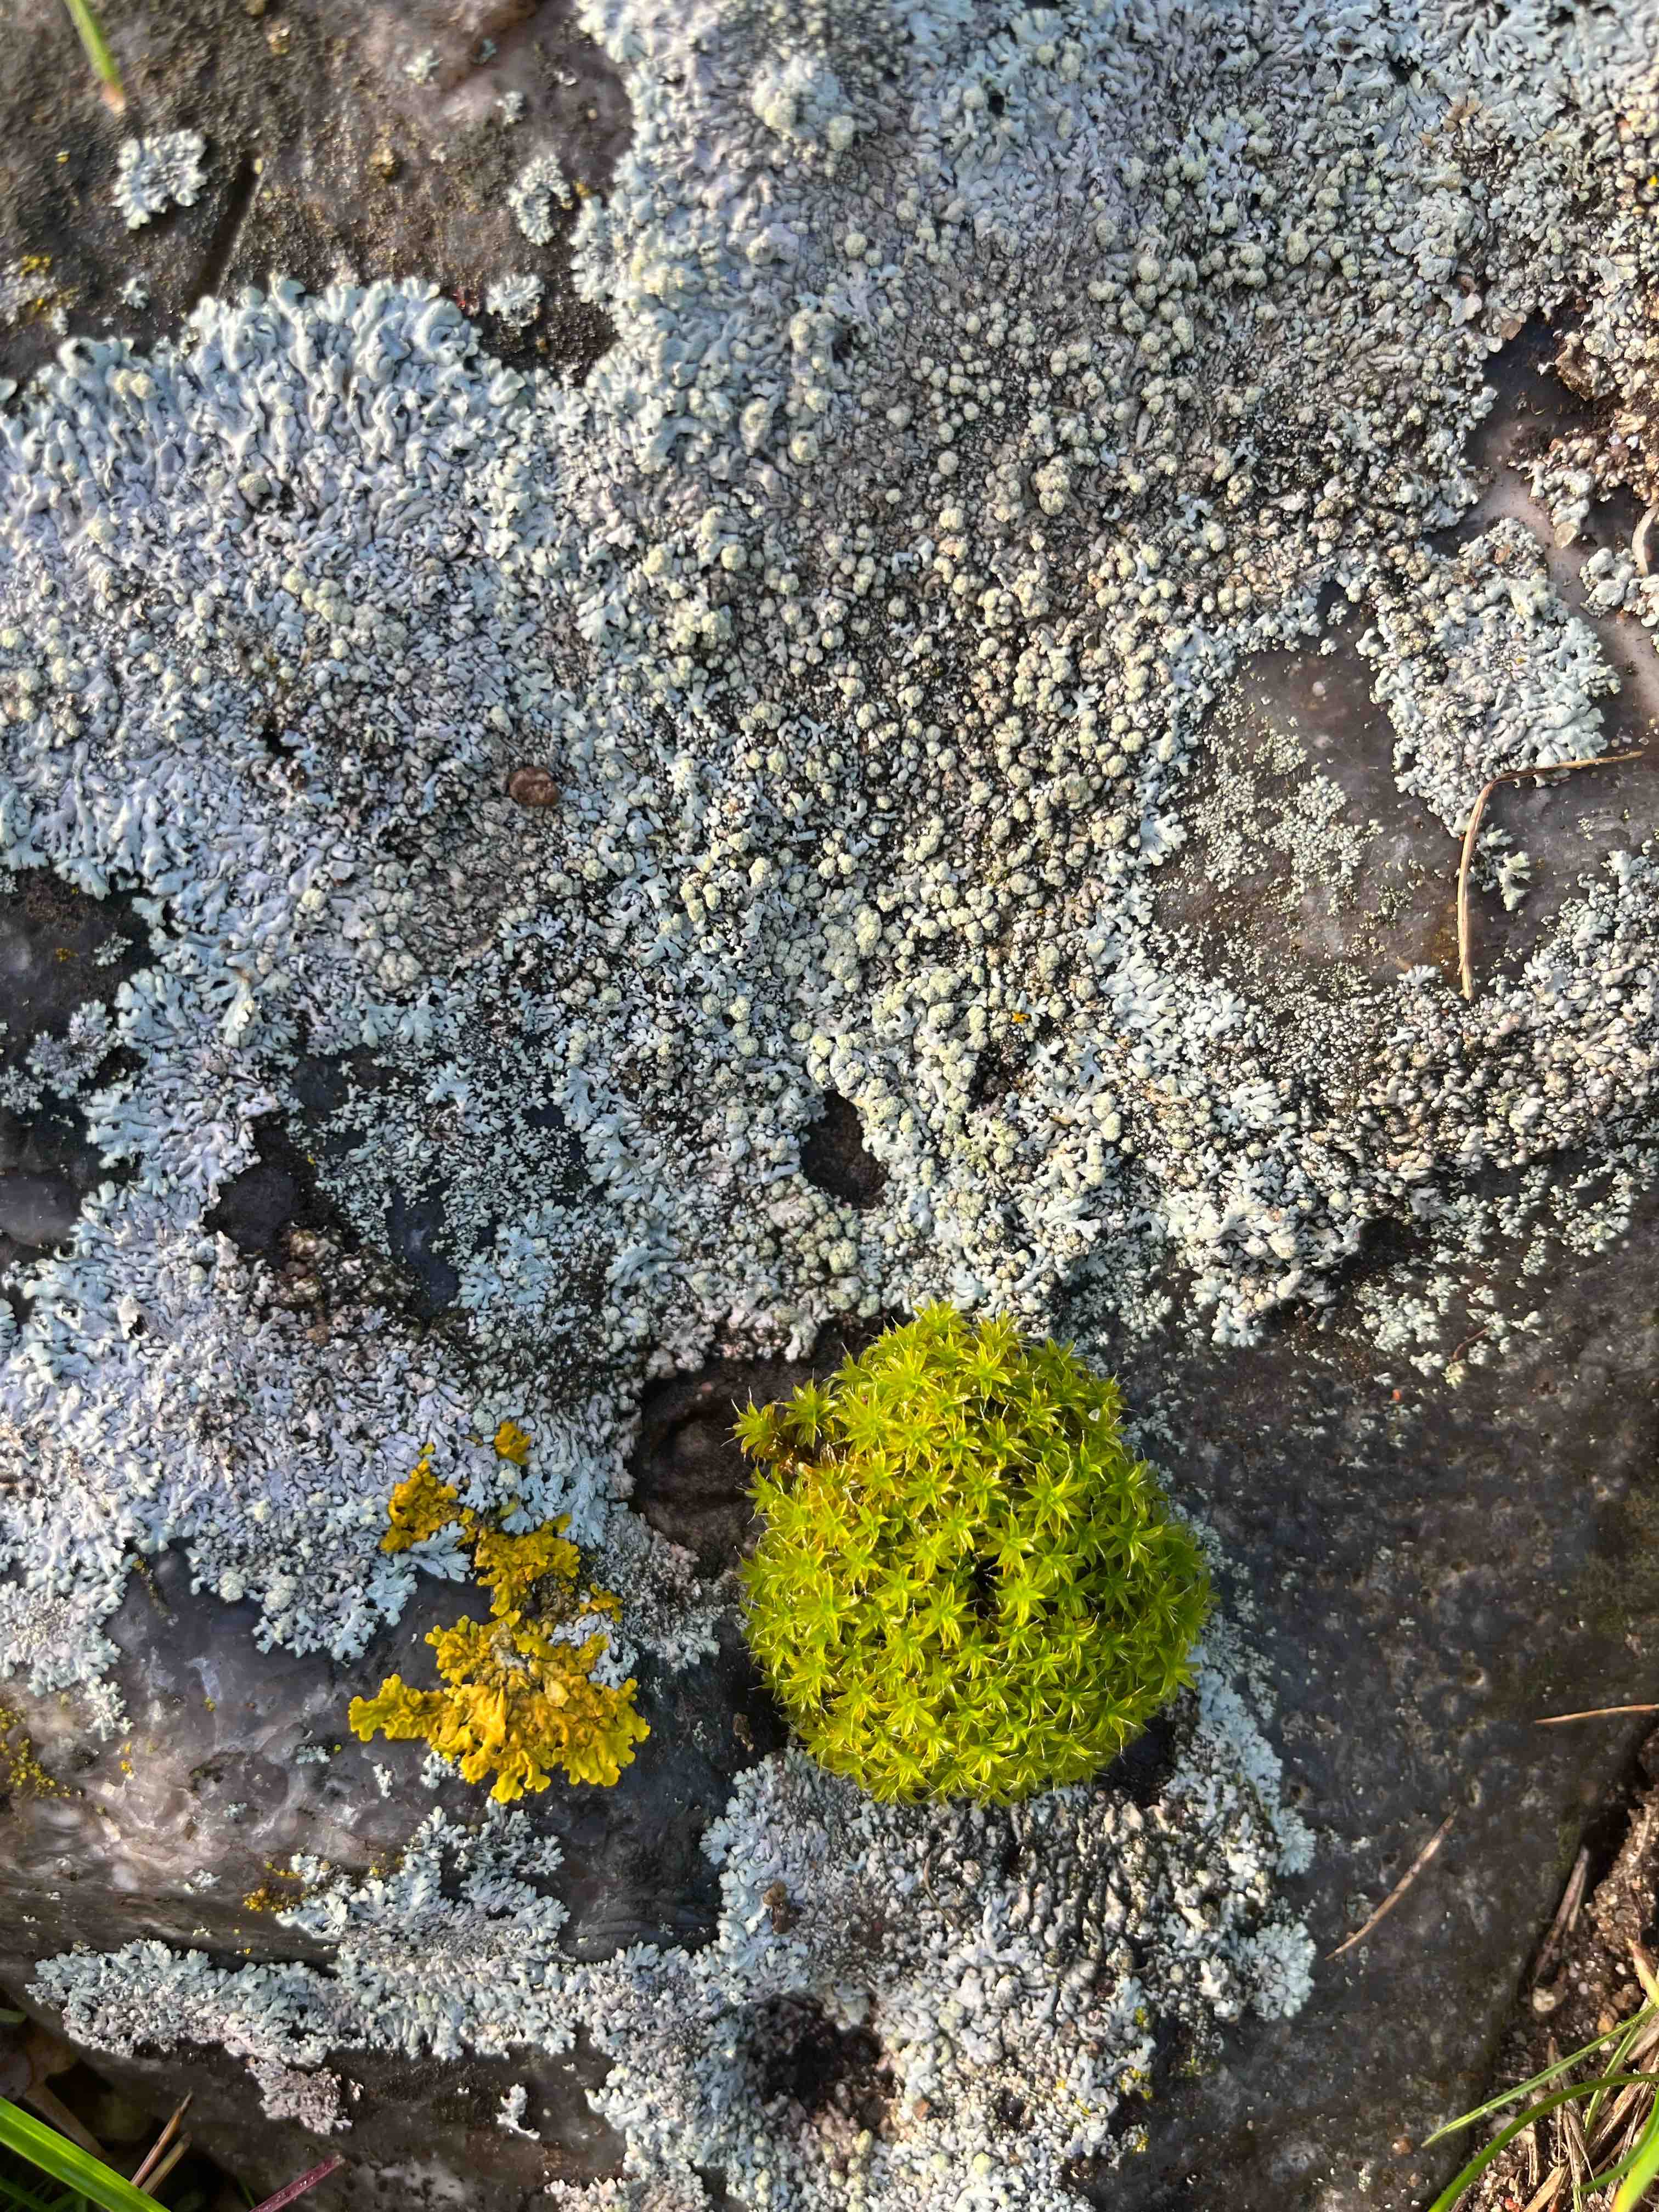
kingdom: Fungi
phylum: Ascomycota
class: Lecanoromycetes
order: Caliciales
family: Physciaceae
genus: Physcia
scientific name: Physcia caesia
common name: blågrå rosetlav
